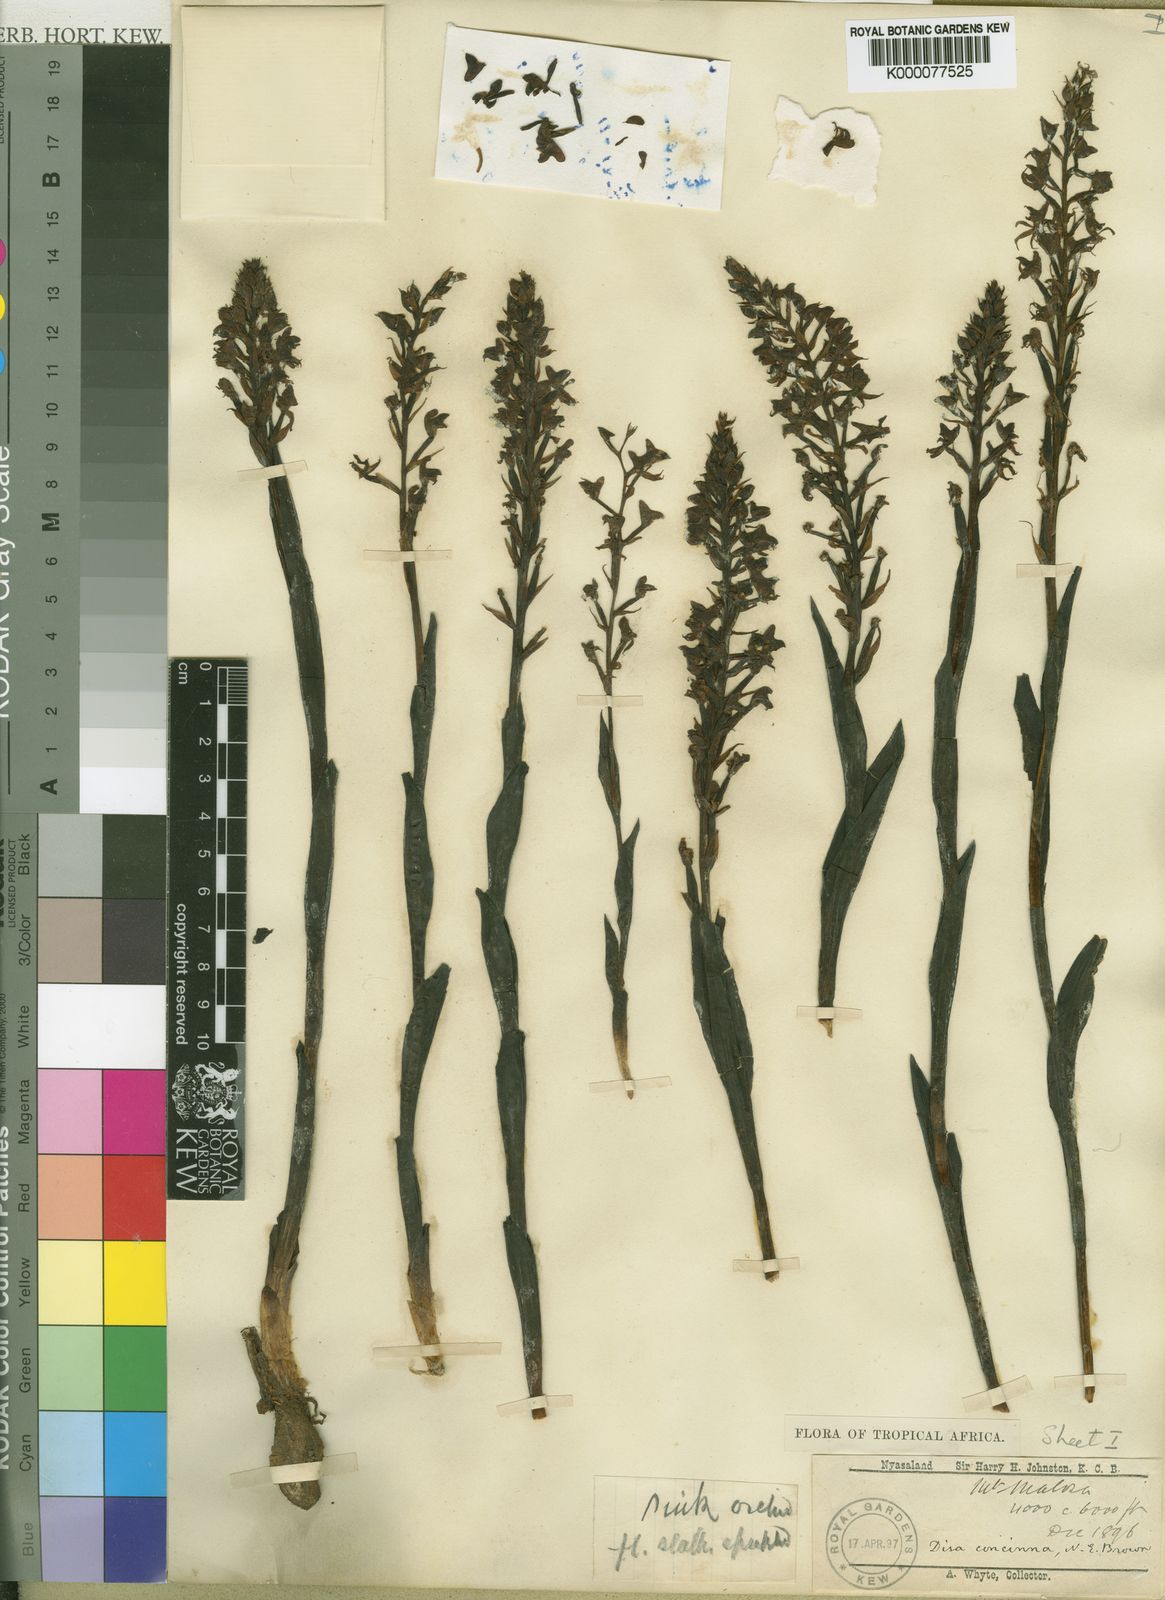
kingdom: Plantae
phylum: Tracheophyta
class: Liliopsida
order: Asparagales
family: Orchidaceae
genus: Disa
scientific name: Disa aconitoides
